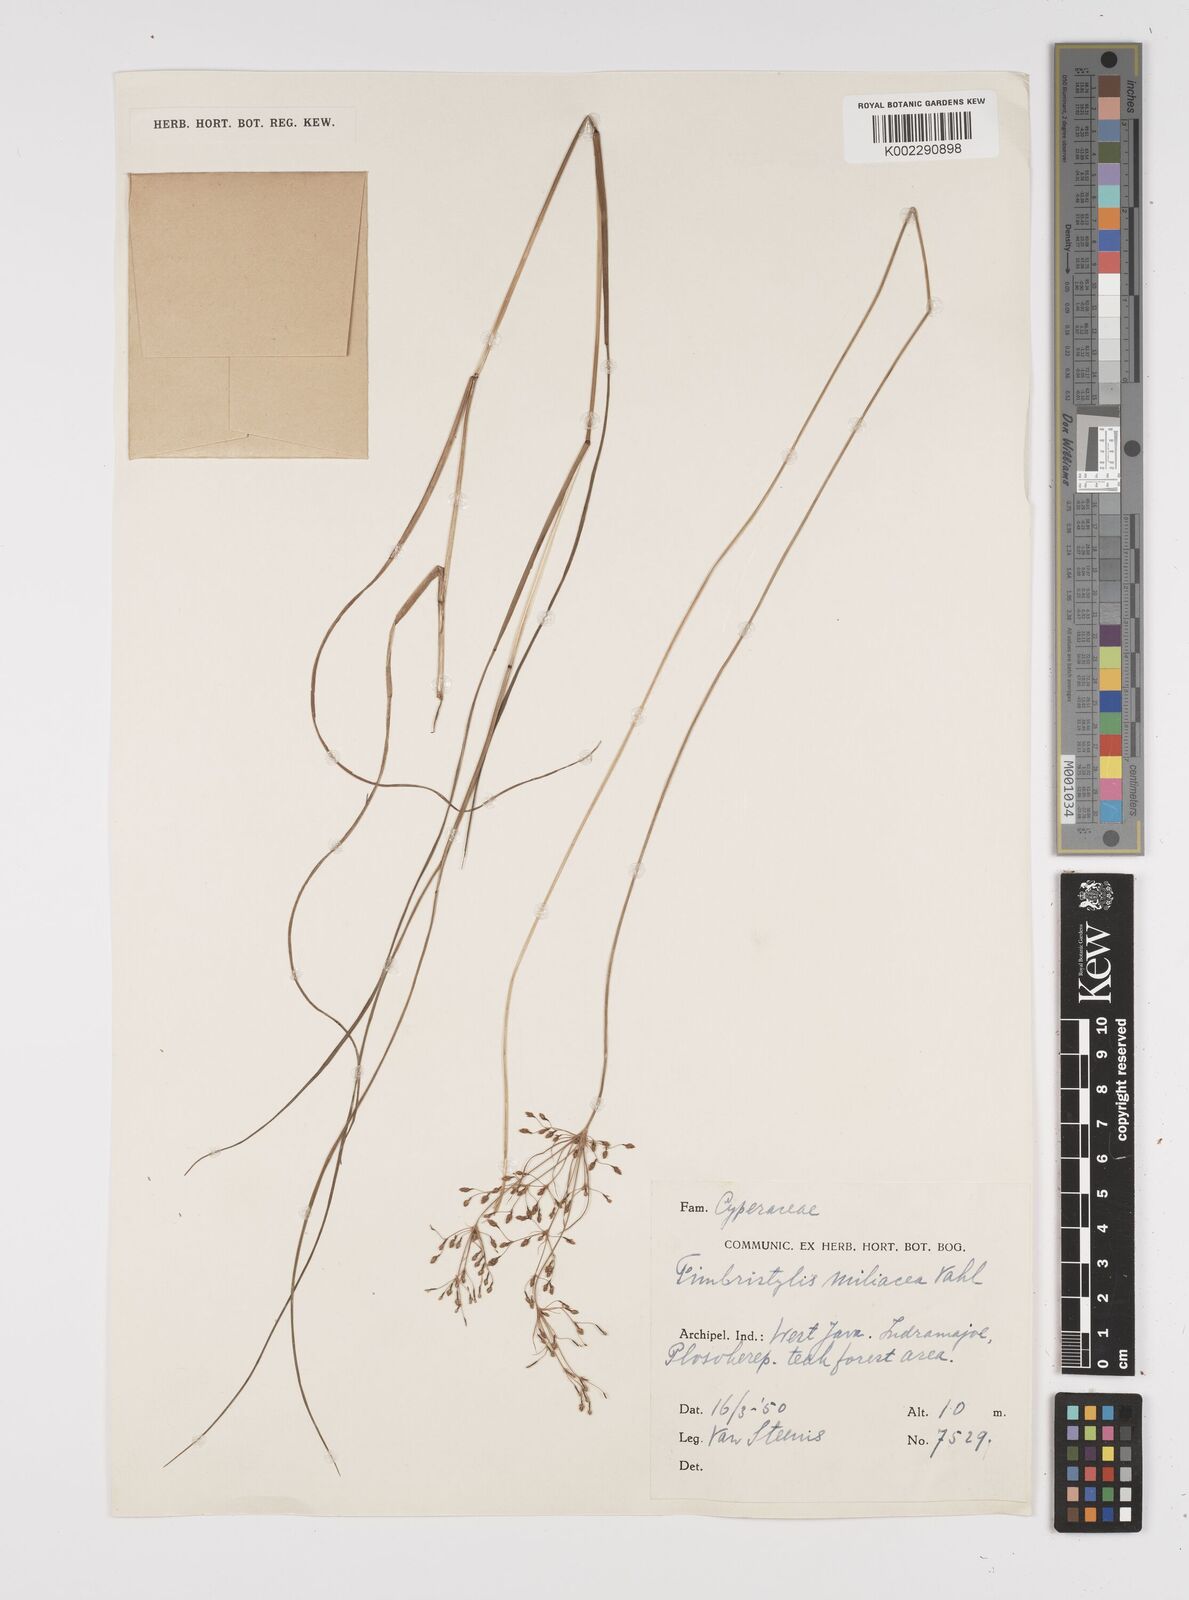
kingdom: Plantae
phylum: Tracheophyta
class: Liliopsida
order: Poales
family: Cyperaceae
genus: Fimbristylis
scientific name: Fimbristylis quinquangularis
